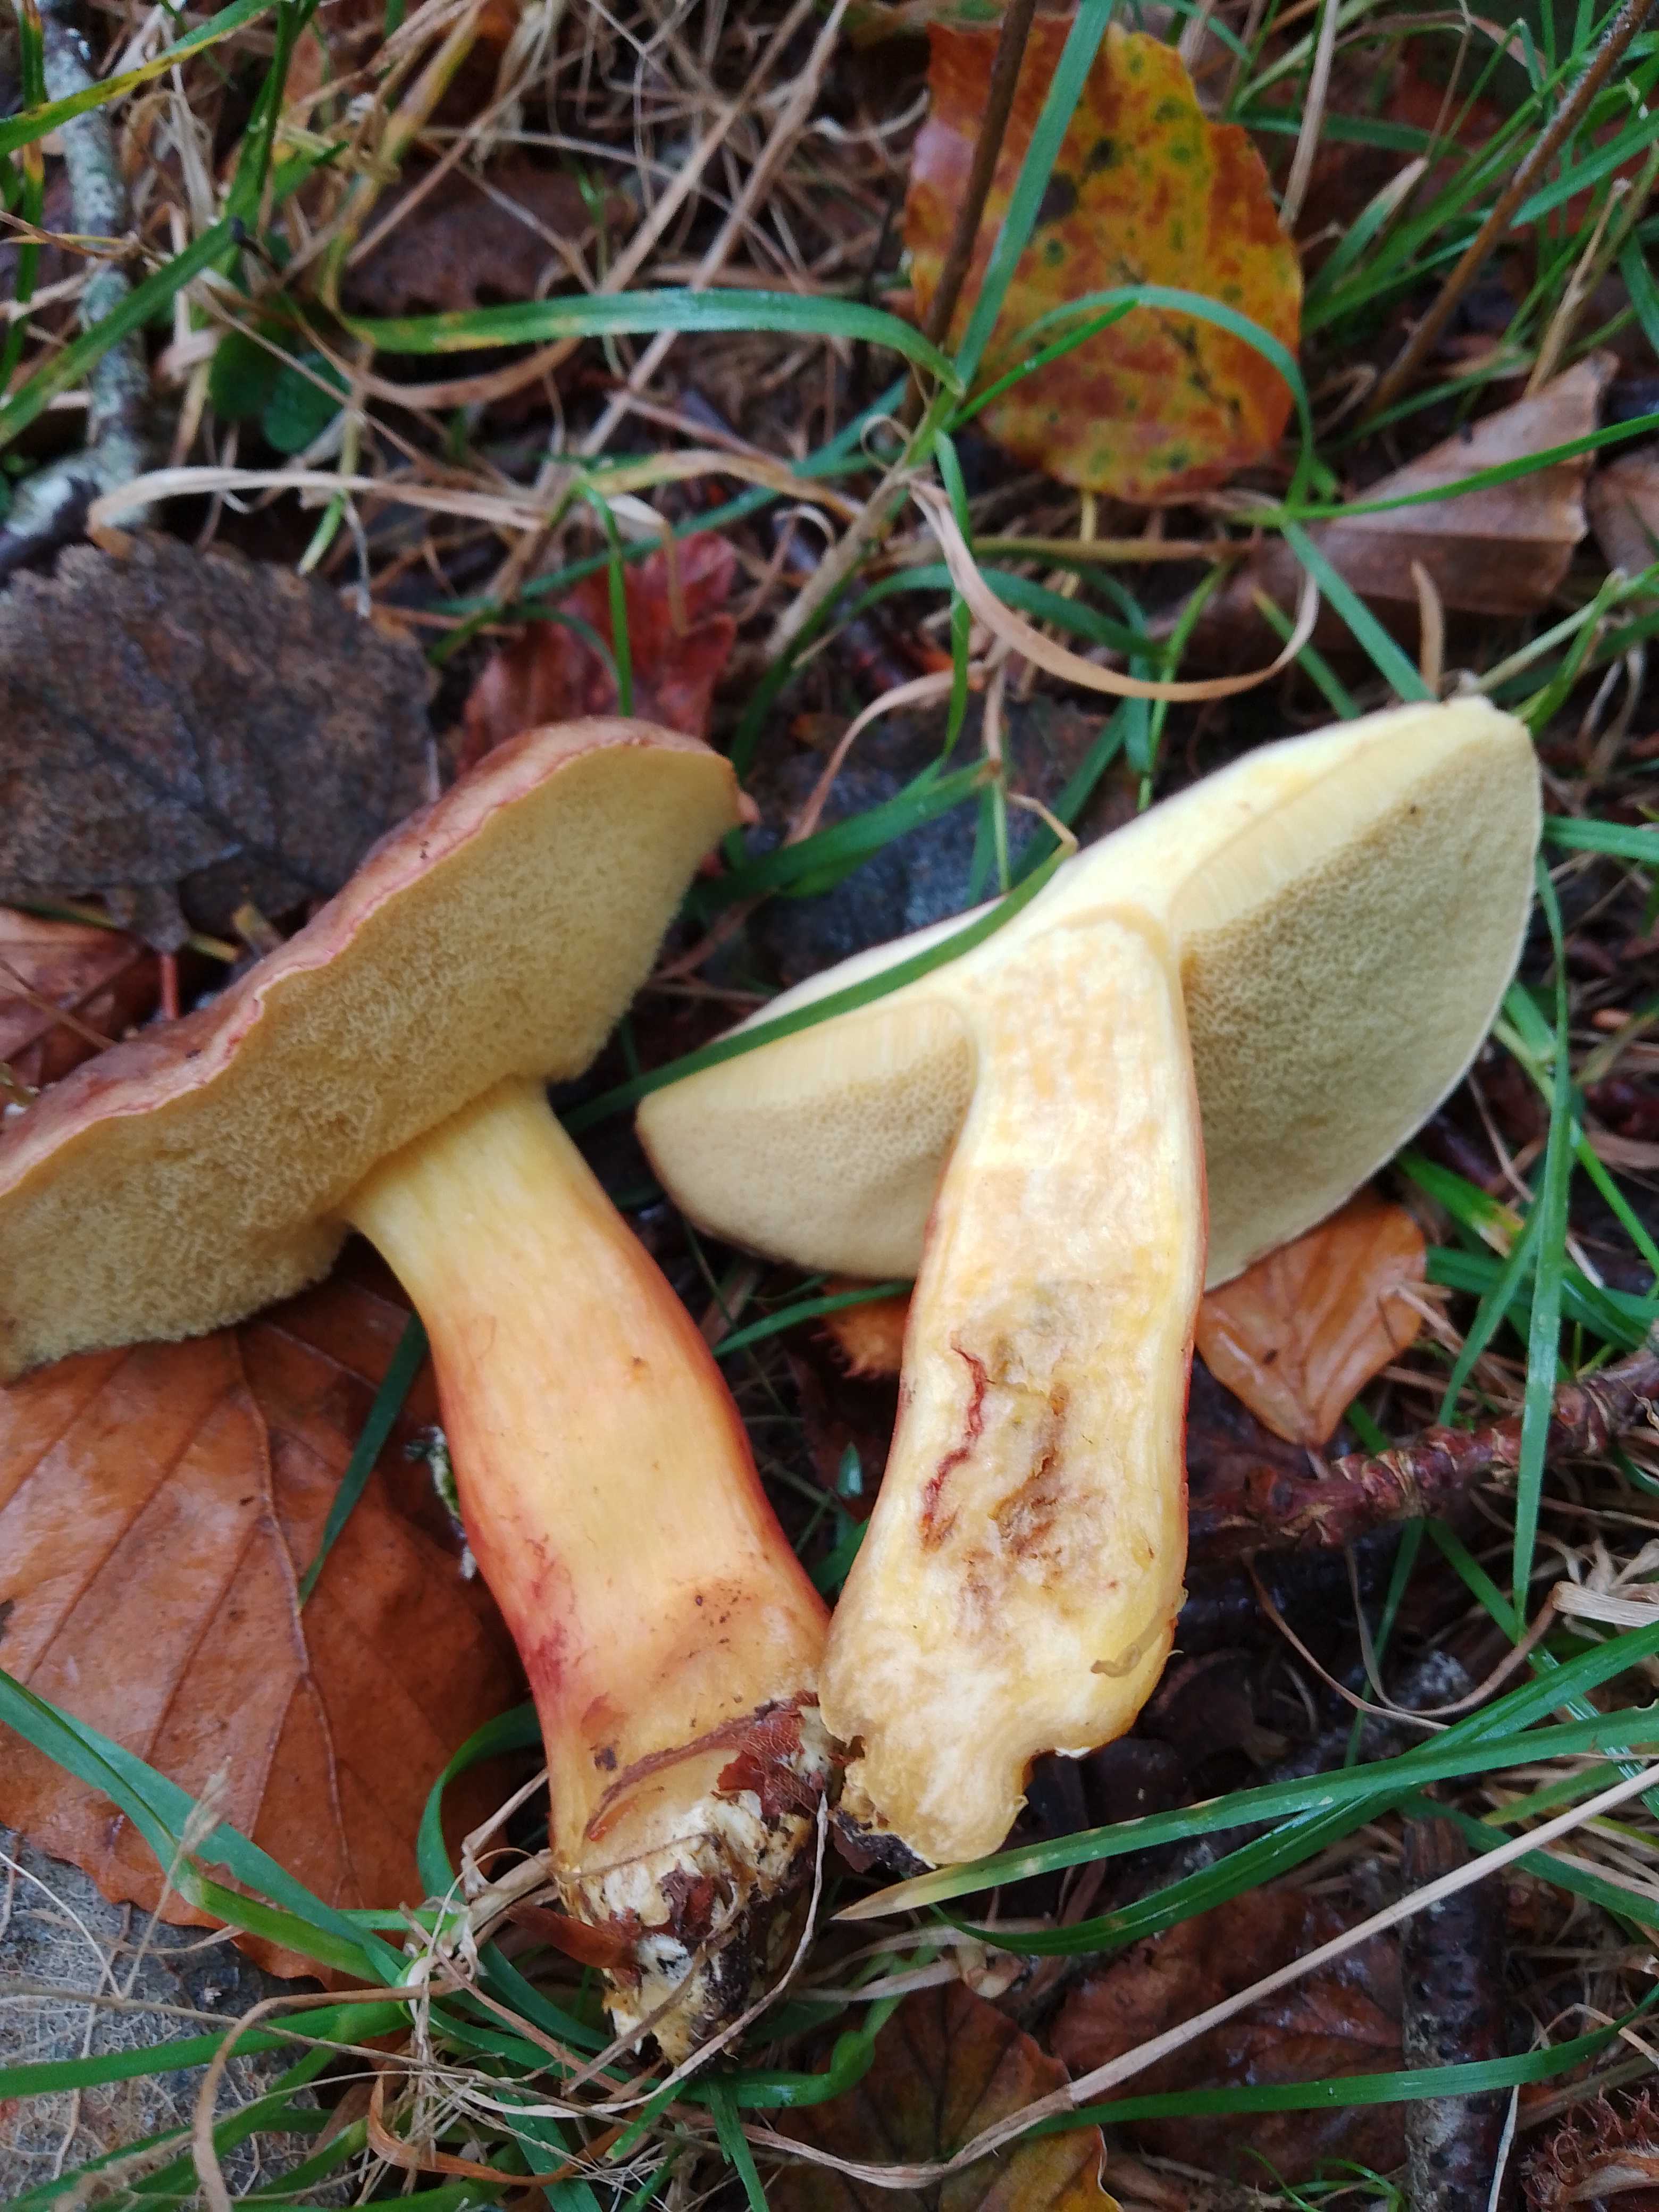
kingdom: Fungi
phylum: Basidiomycota
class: Agaricomycetes
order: Boletales
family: Boletaceae
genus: Xerocomellus
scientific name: Xerocomellus pruinatus
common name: dugget rørhat
